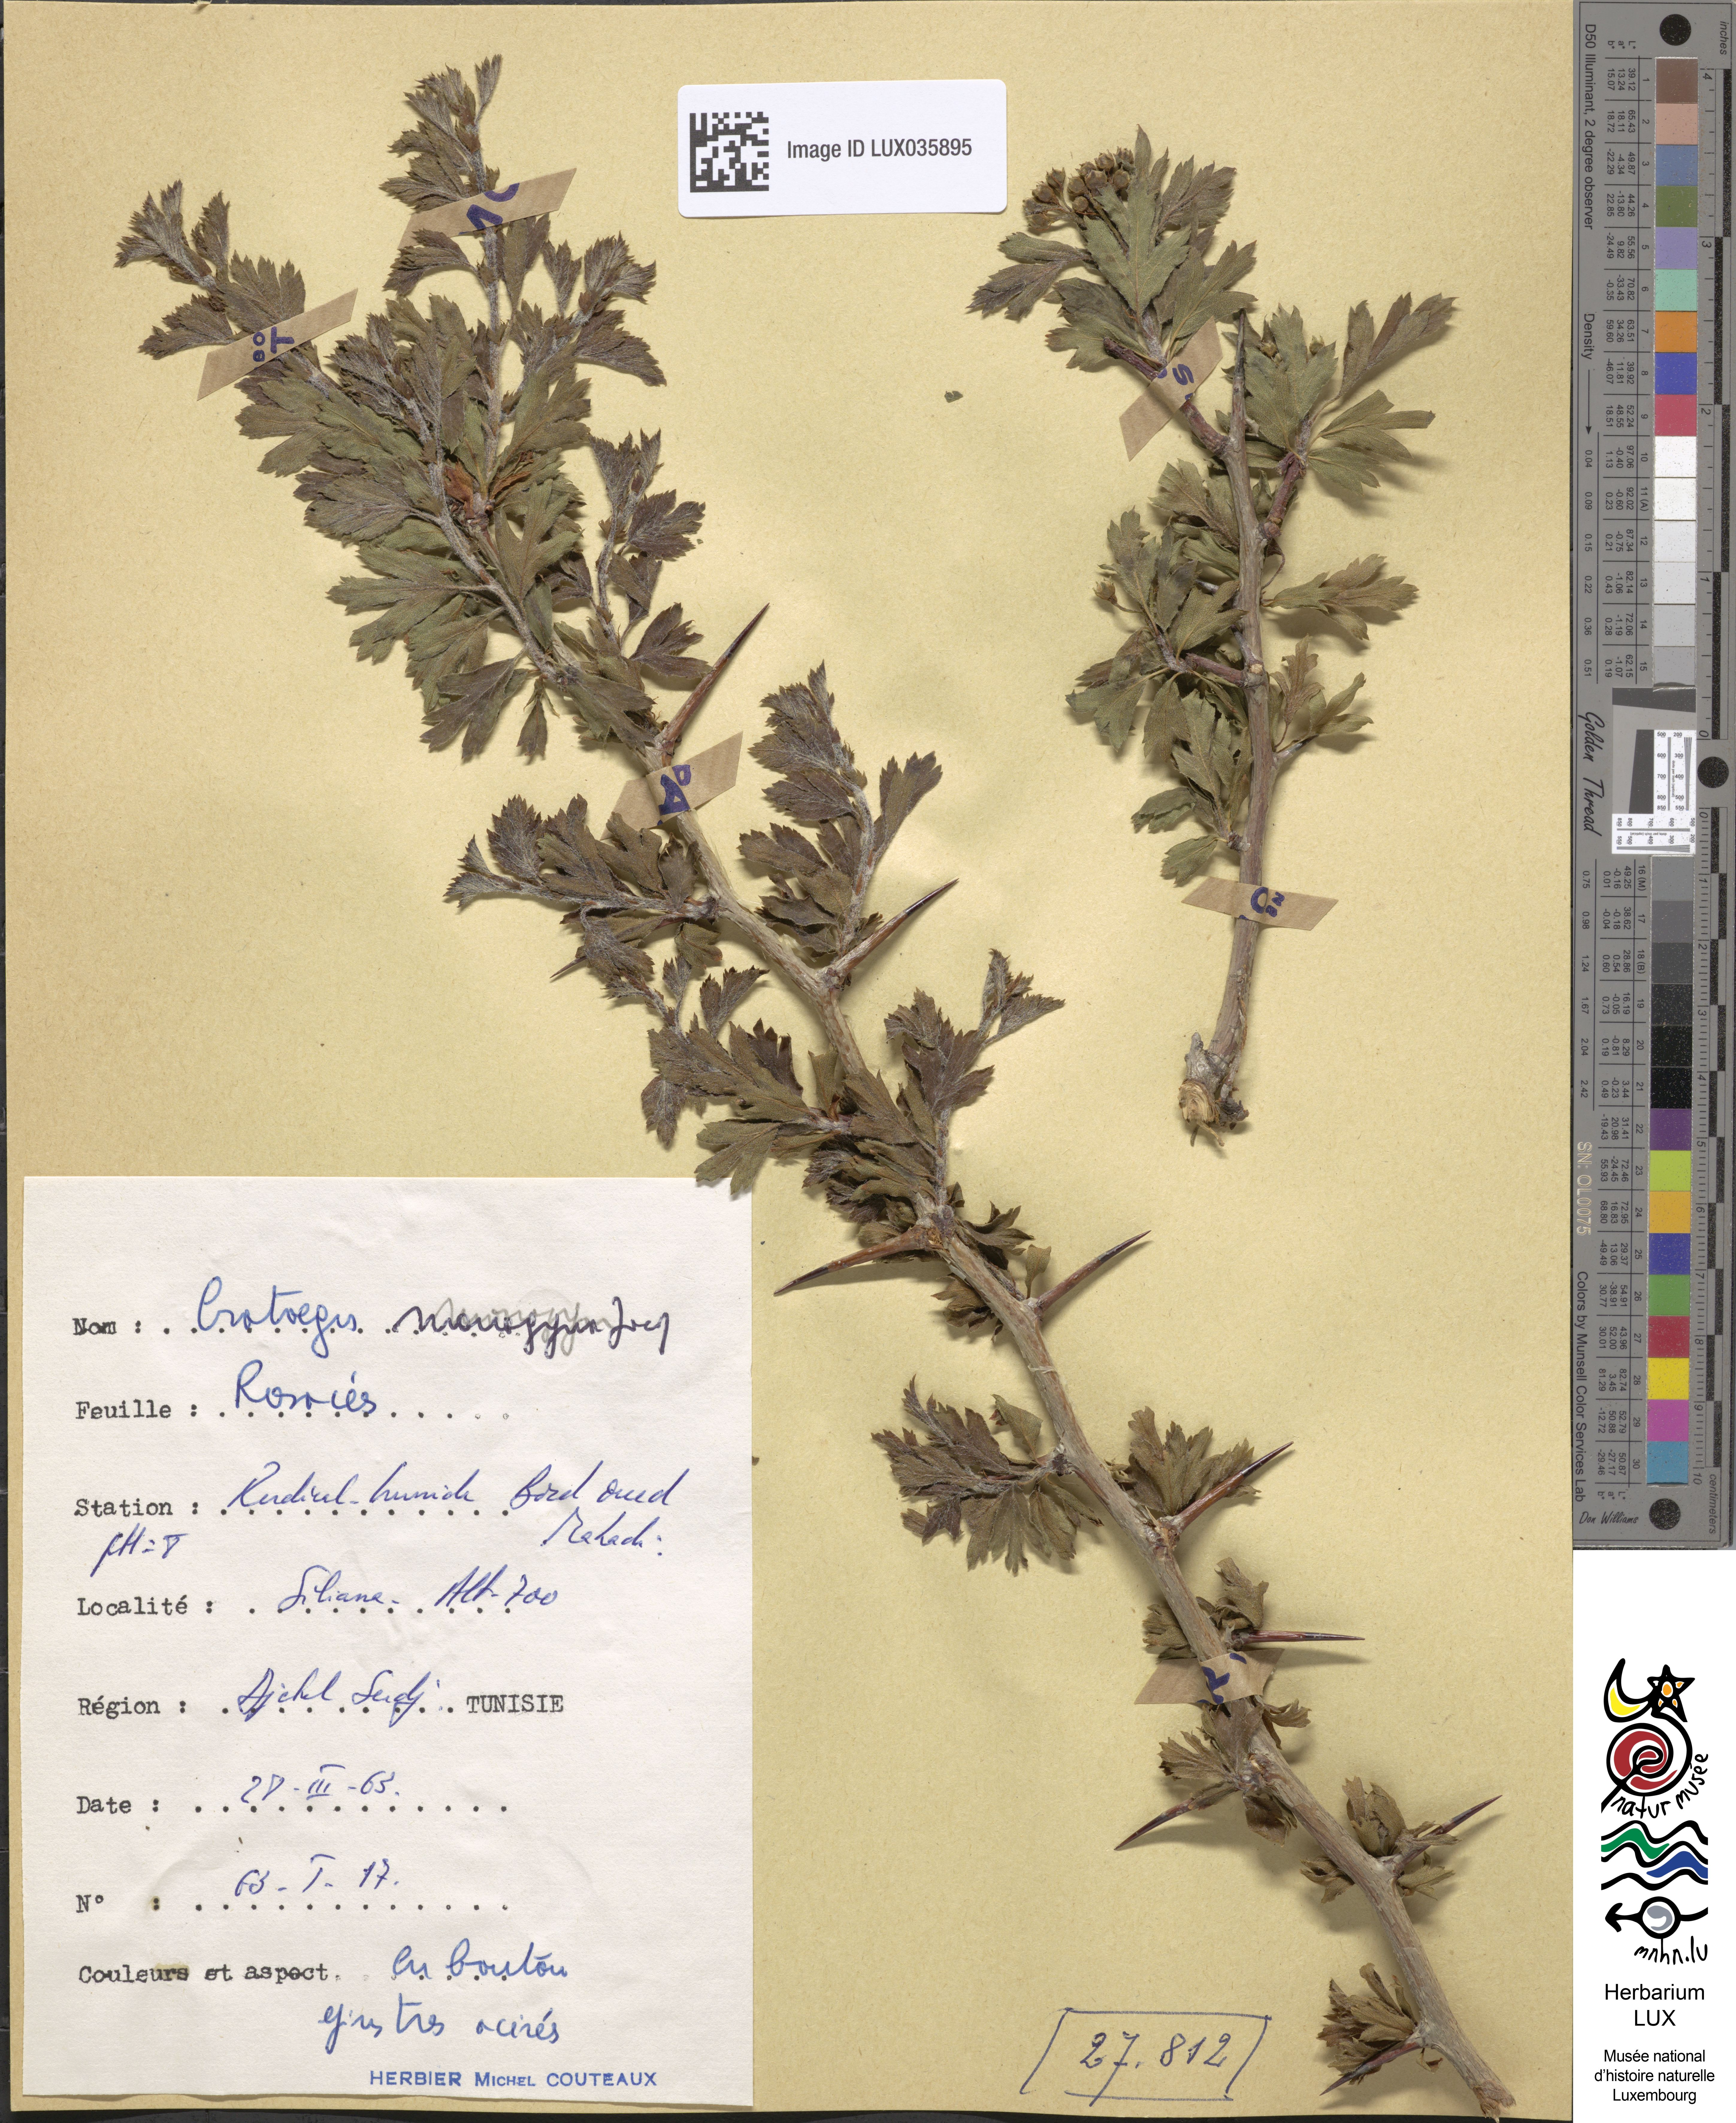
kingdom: Plantae
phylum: Tracheophyta
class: Magnoliopsida
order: Rosales
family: Rosaceae
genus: Crataegus
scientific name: Crataegus monogyna
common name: Hawthorn
